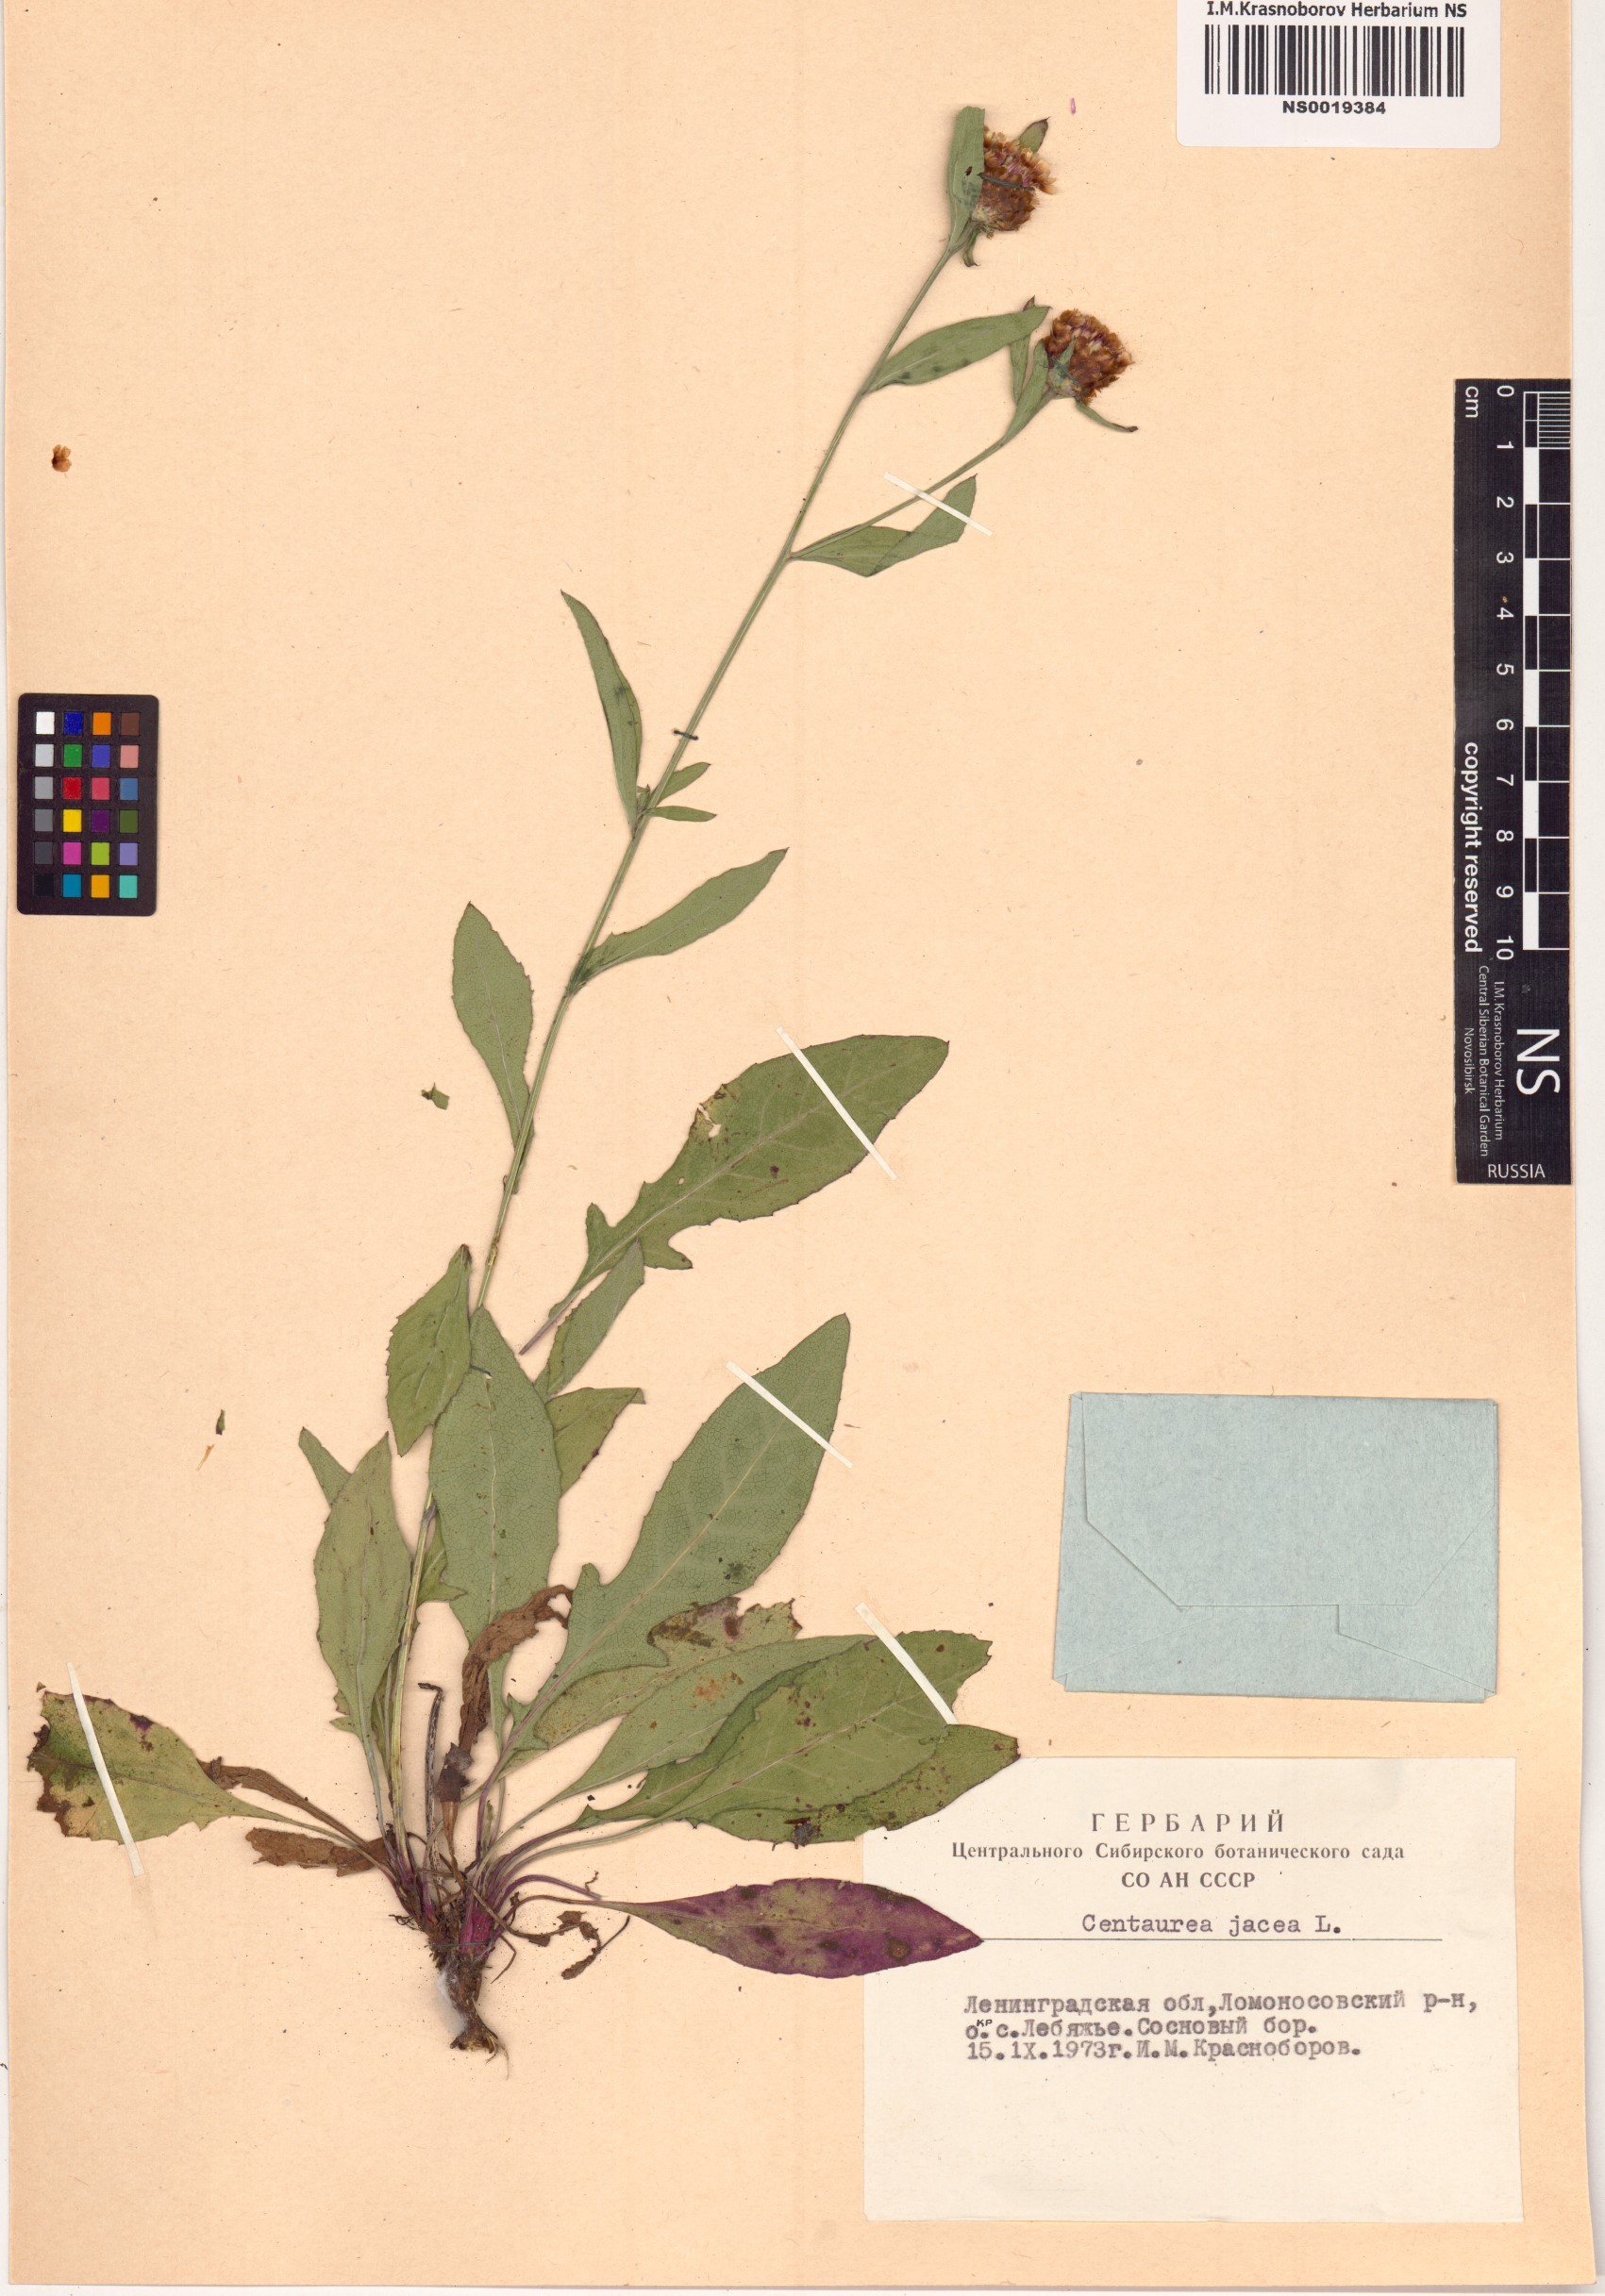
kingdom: Plantae
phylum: Tracheophyta
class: Magnoliopsida
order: Asterales
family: Asteraceae
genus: Centaurea
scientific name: Centaurea jacea
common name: Brown knapweed
